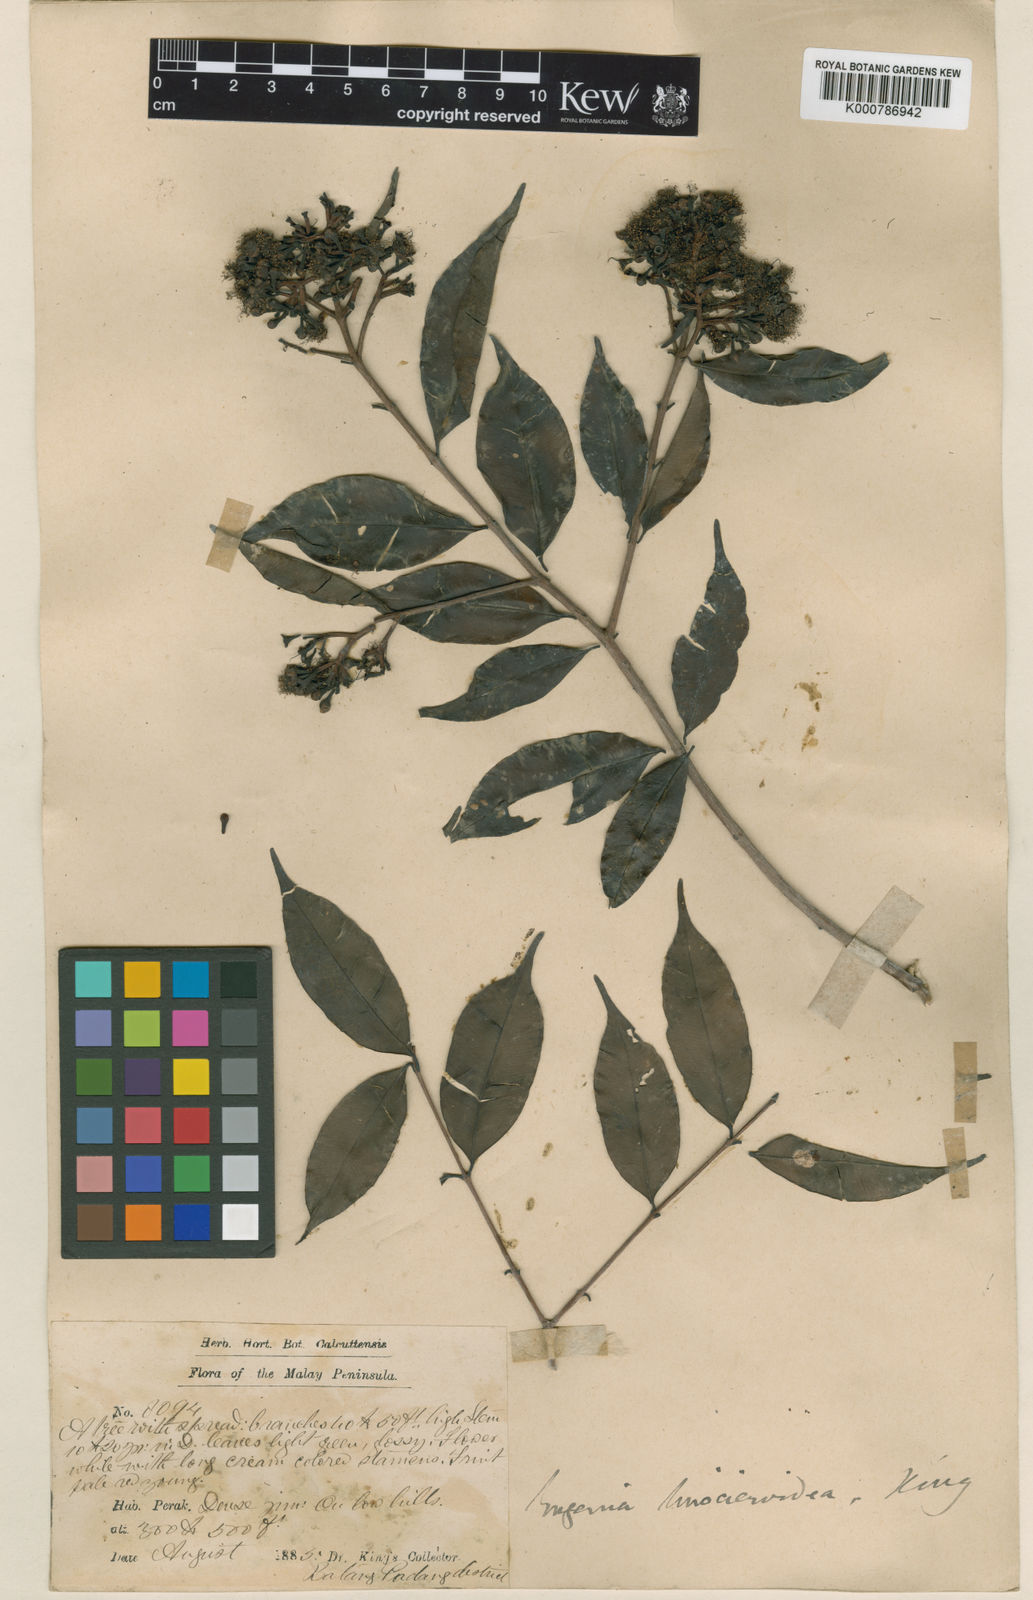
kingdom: Plantae
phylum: Tracheophyta
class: Magnoliopsida
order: Myrtales
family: Myrtaceae
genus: Syzygium
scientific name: Syzygium linocieroideum
